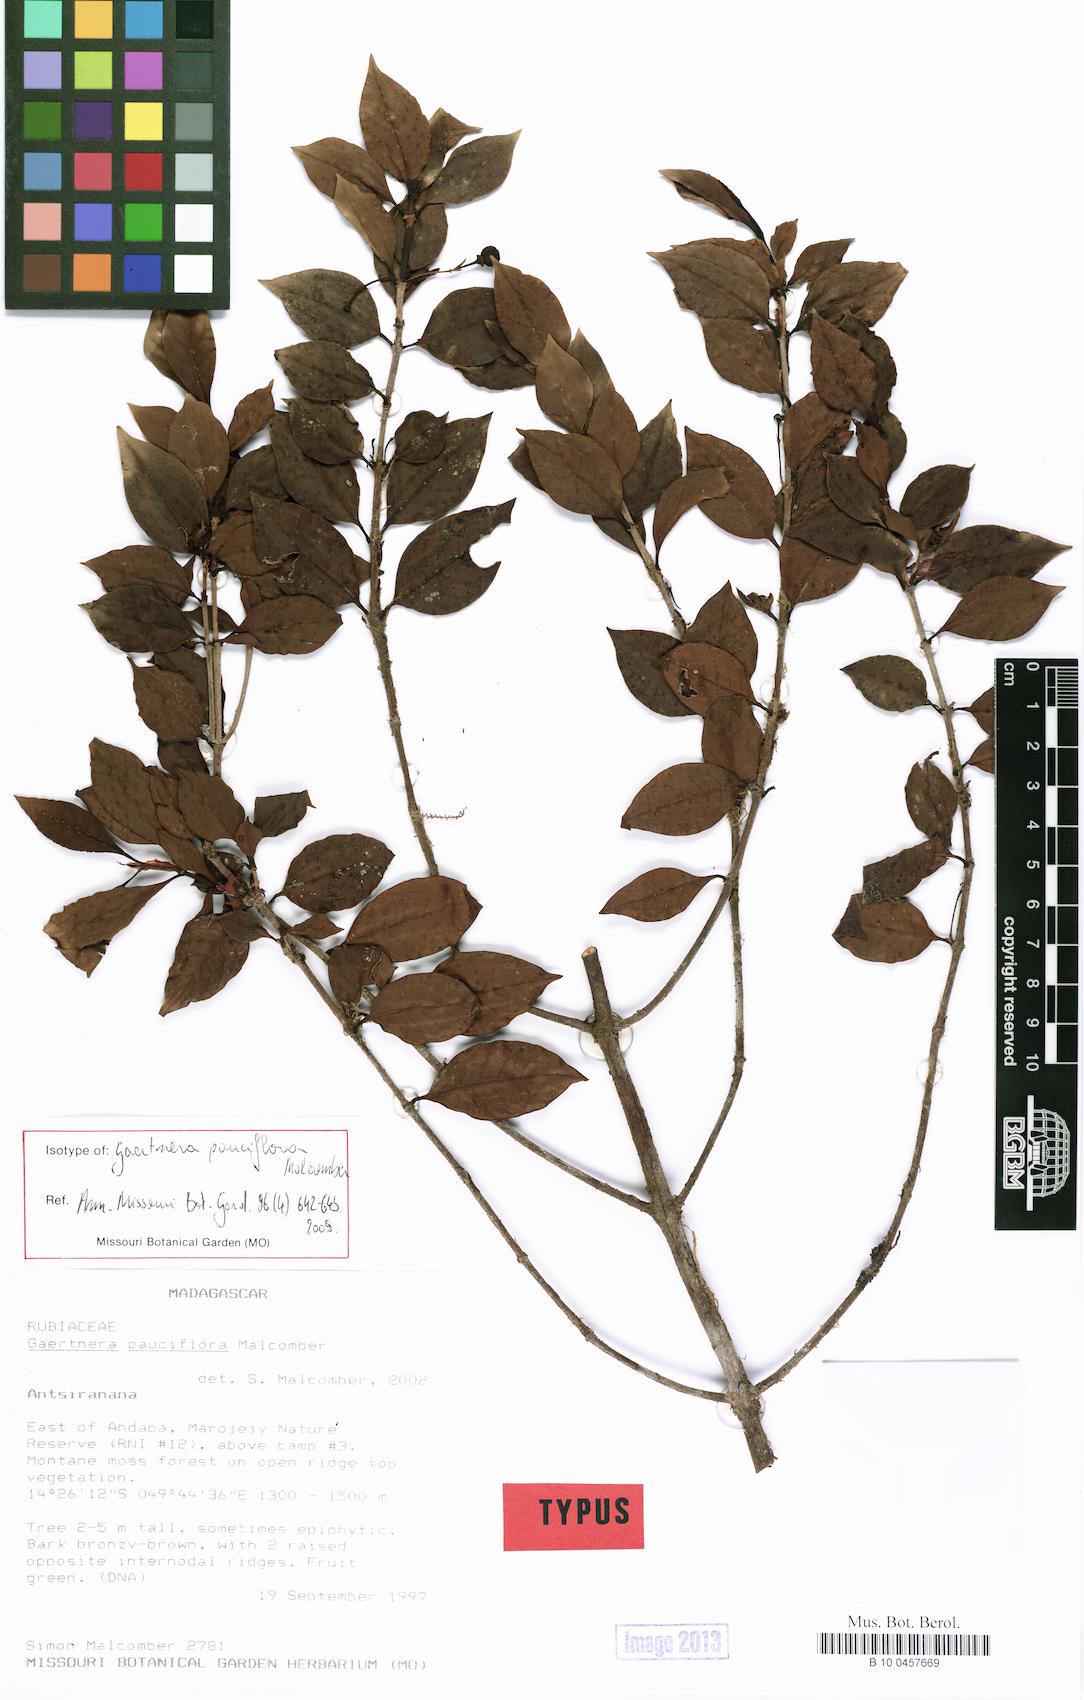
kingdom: Plantae
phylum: Tracheophyta
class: Magnoliopsida
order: Gentianales
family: Rubiaceae
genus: Gaertnera
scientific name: Gaertnera pauciflora
